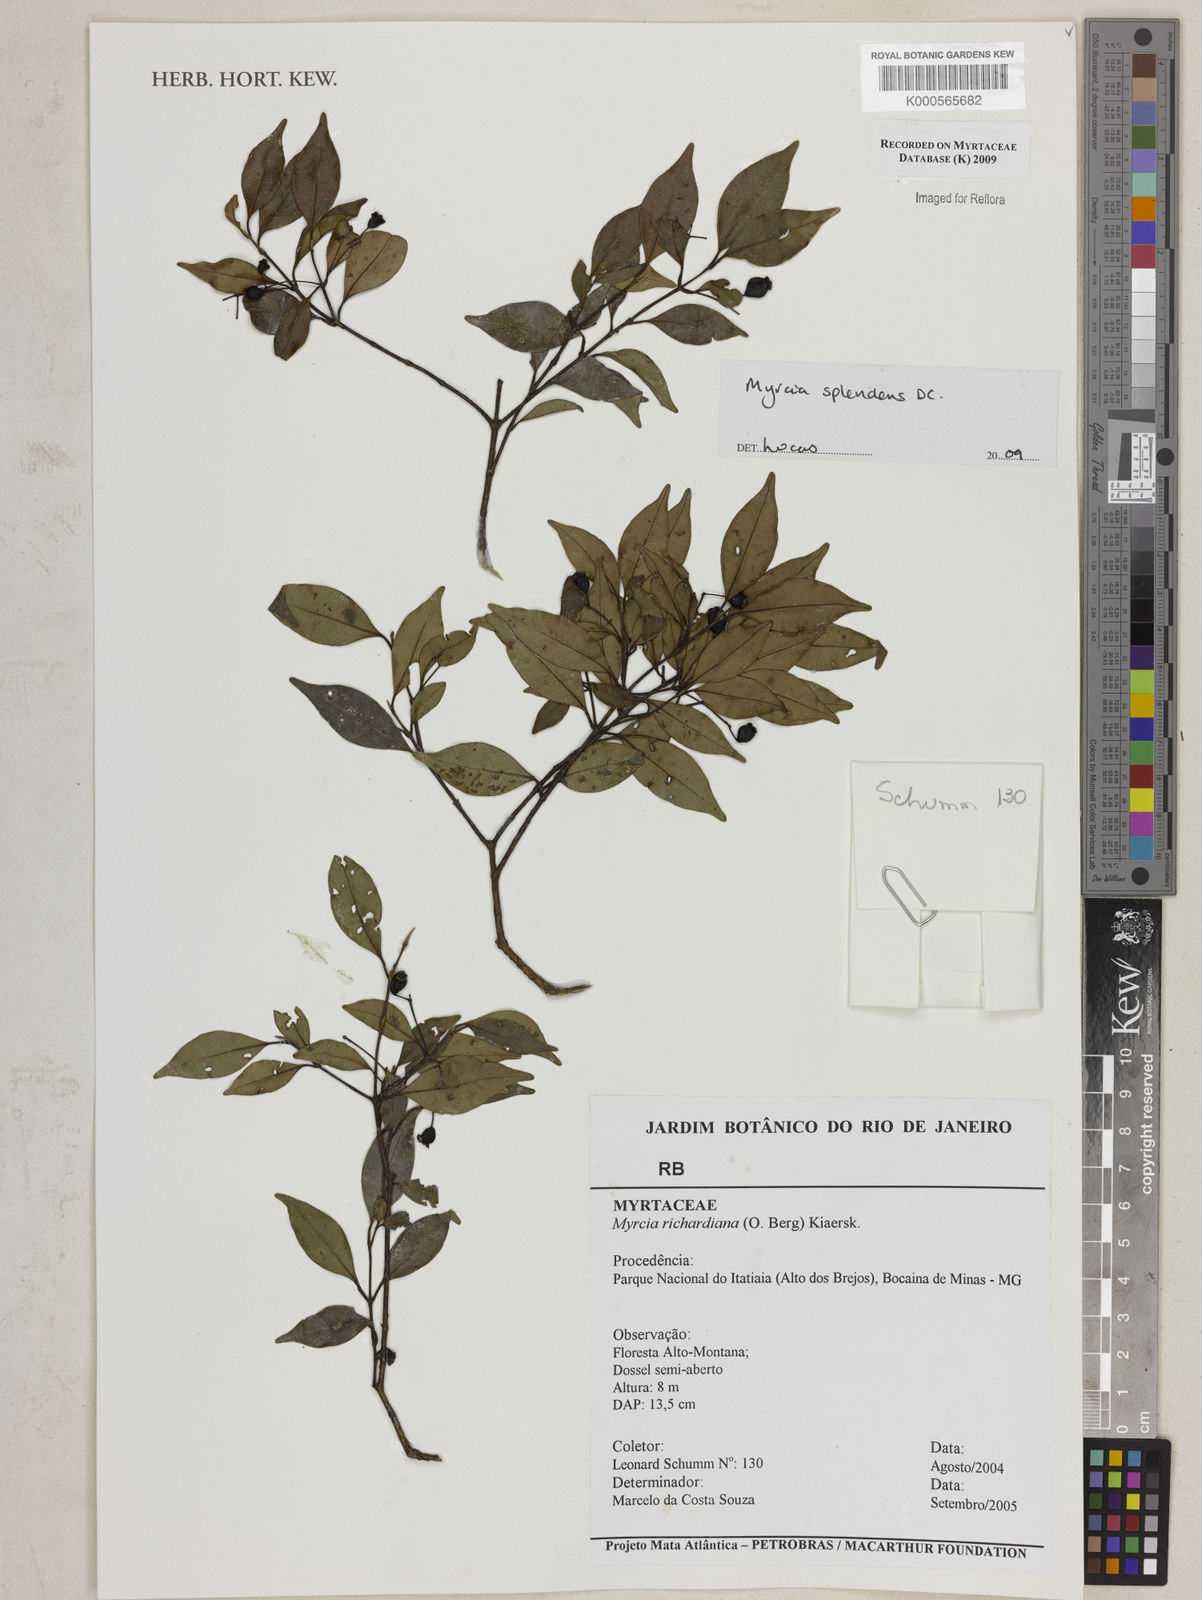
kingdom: Plantae
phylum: Tracheophyta
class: Magnoliopsida
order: Myrtales
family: Myrtaceae
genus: Myrcia
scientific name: Myrcia aethusa
